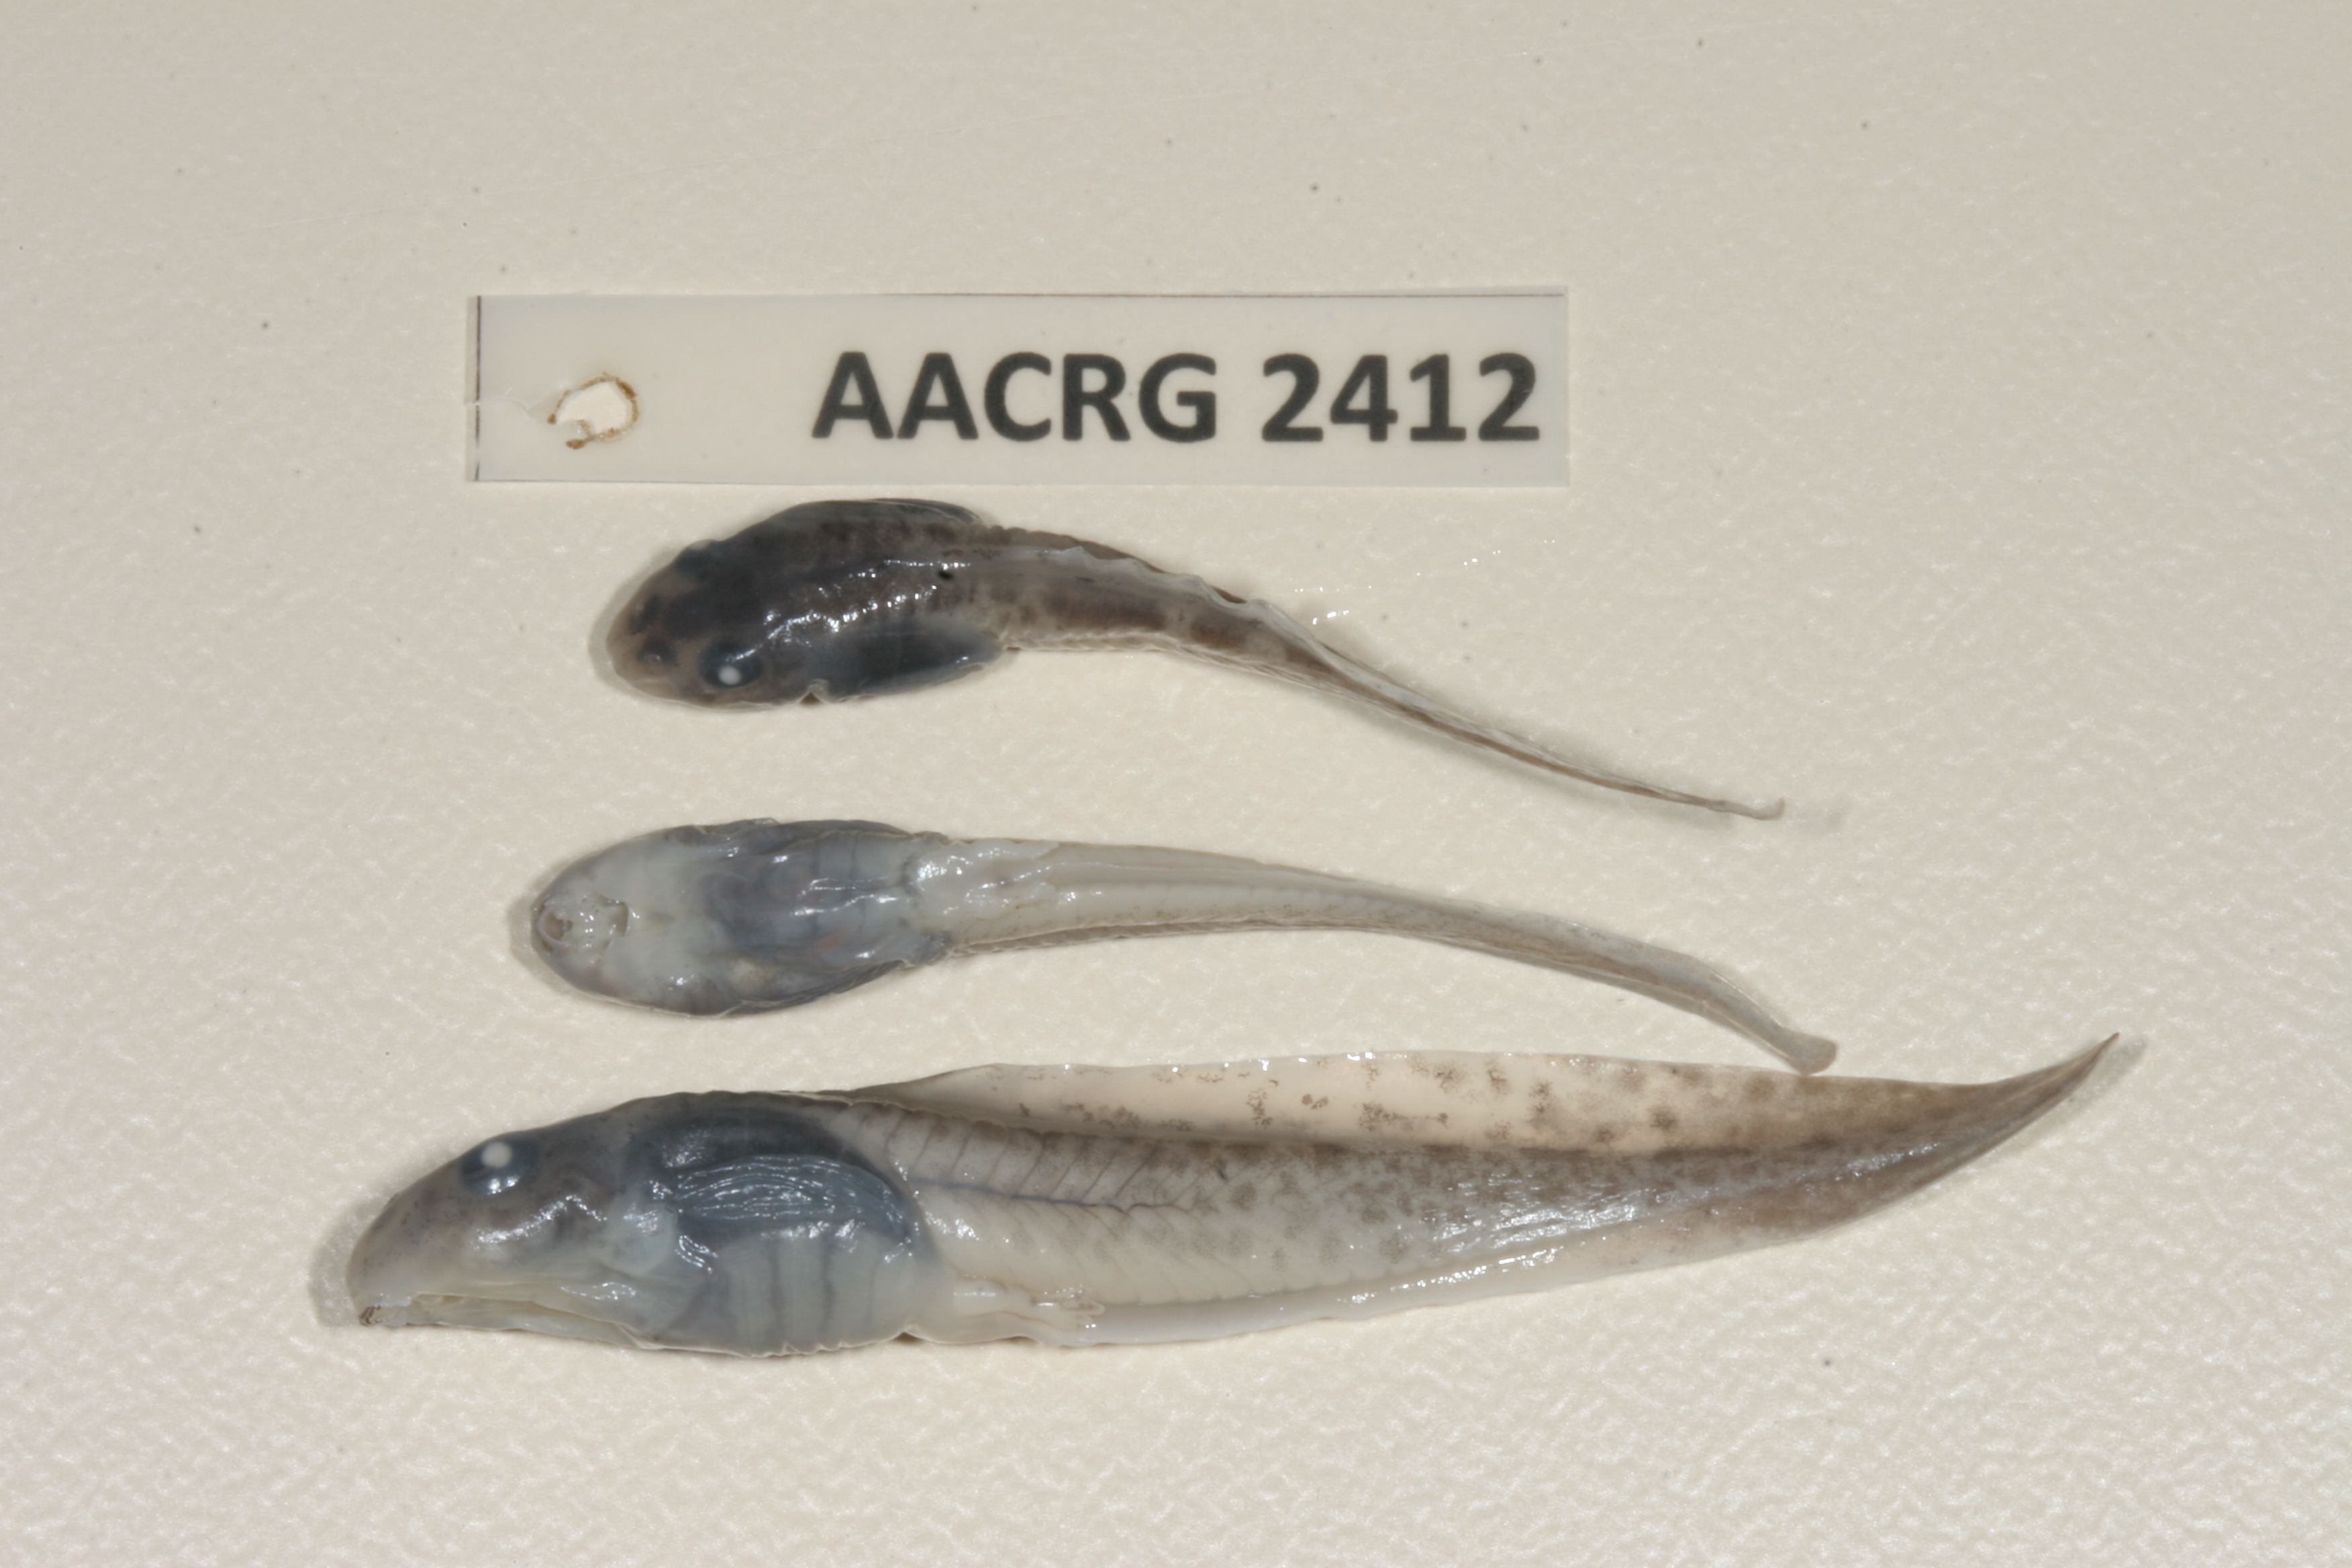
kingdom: Animalia
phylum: Chordata
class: Amphibia
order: Anura
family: Pyxicephalidae
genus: Amietia
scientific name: Amietia delalandii
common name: Delalande's river frog
